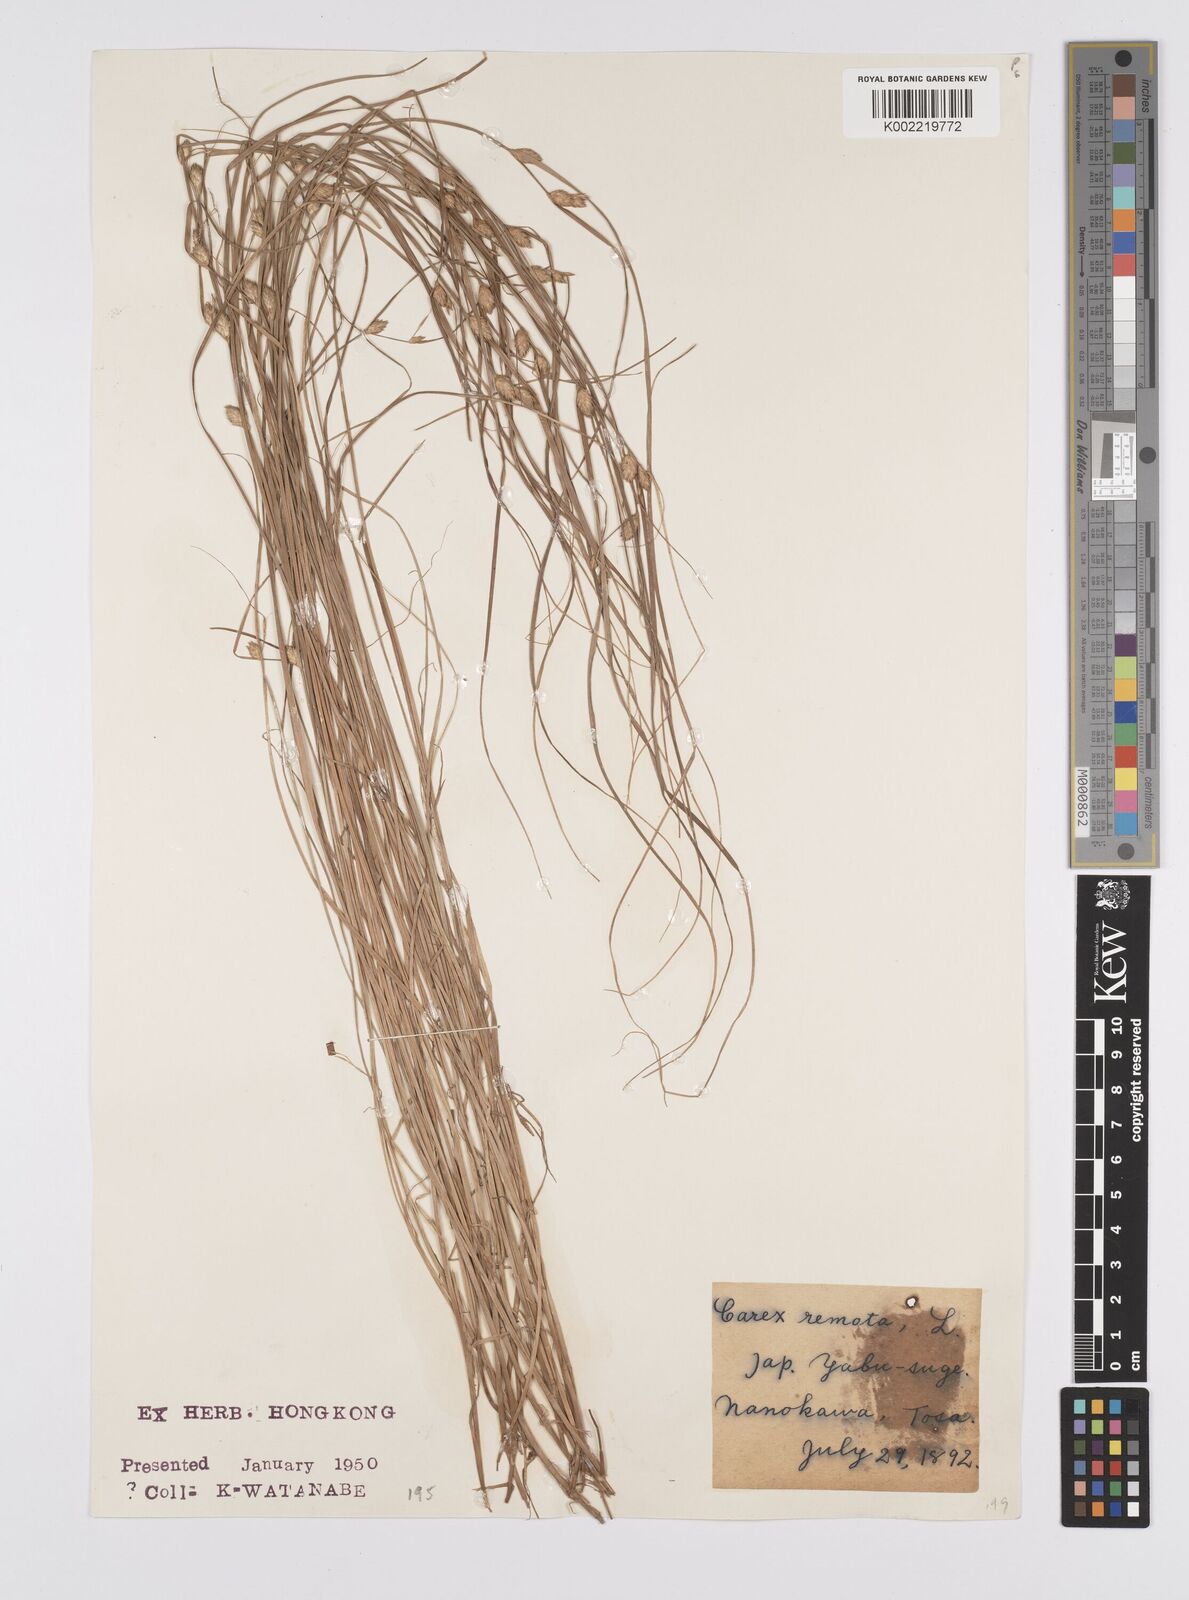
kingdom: Plantae
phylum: Tracheophyta
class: Liliopsida
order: Poales
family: Cyperaceae
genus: Carex
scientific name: Carex remota
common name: Remote sedge
